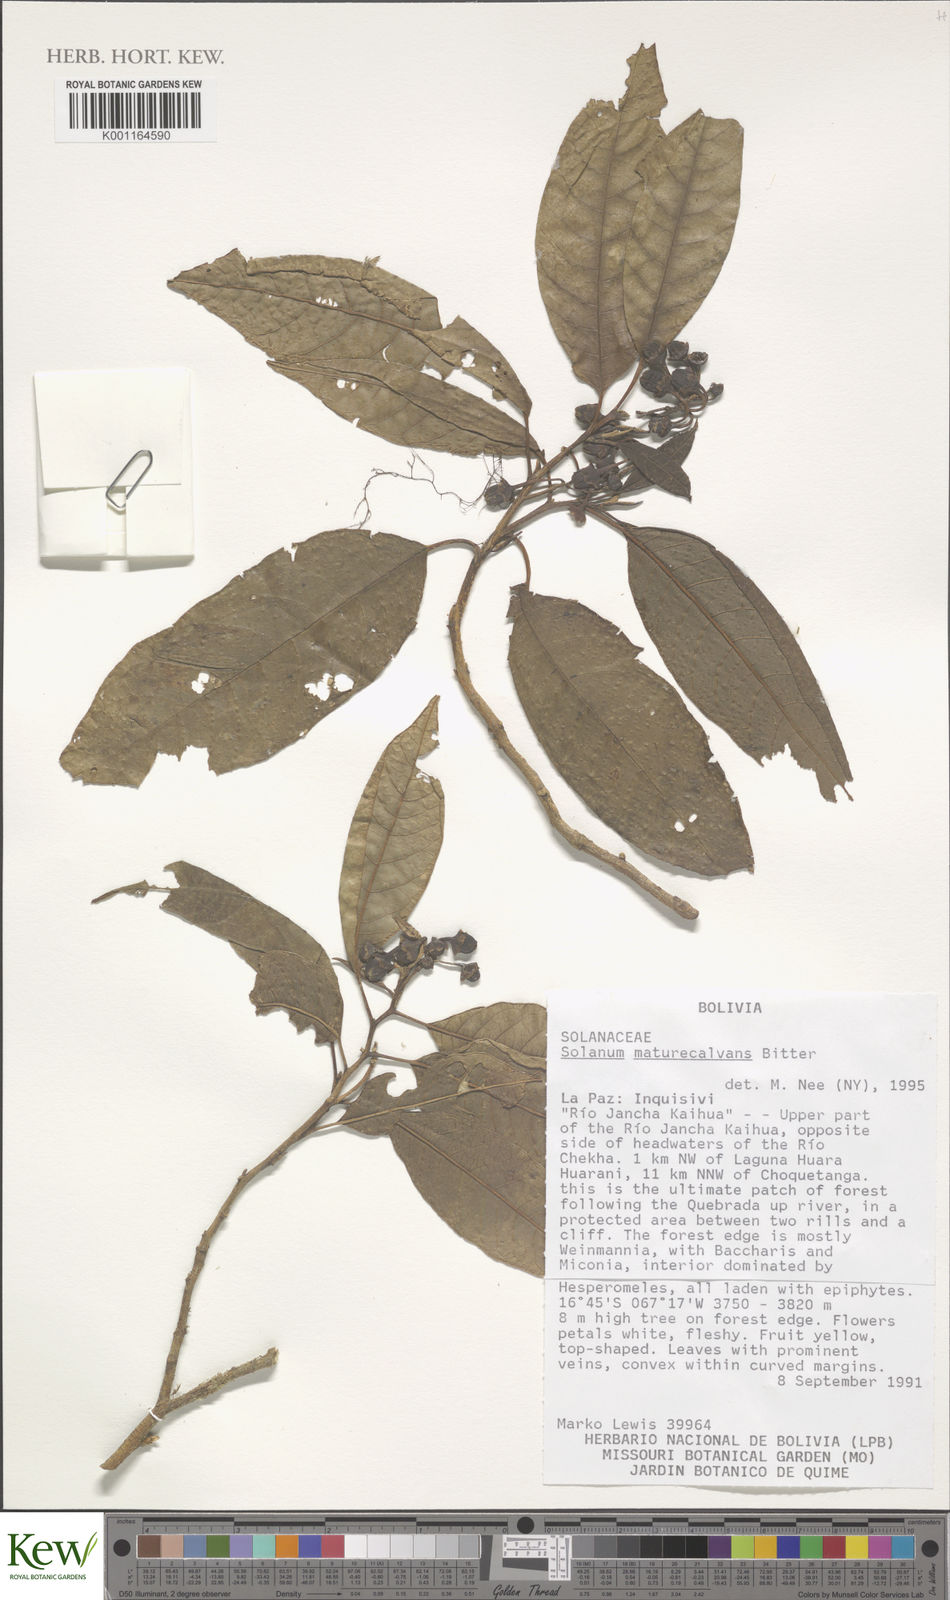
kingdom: Plantae
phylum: Tracheophyta
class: Magnoliopsida
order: Solanales
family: Solanaceae
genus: Solanum
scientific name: Solanum maturecalvans
